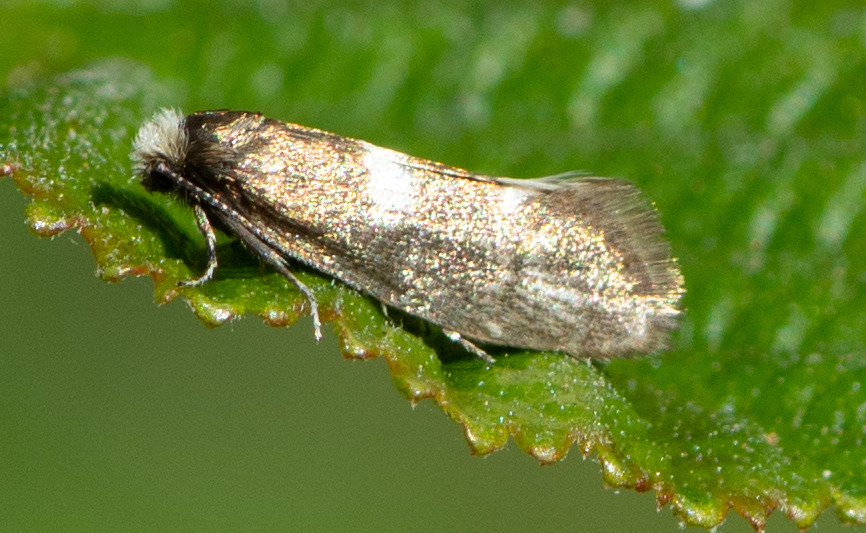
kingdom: Animalia
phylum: Arthropoda
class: Insecta
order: Lepidoptera
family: Incurvariidae
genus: Incurvaria
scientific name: Incurvaria pectinea
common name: Blegt nøjsomt møl
